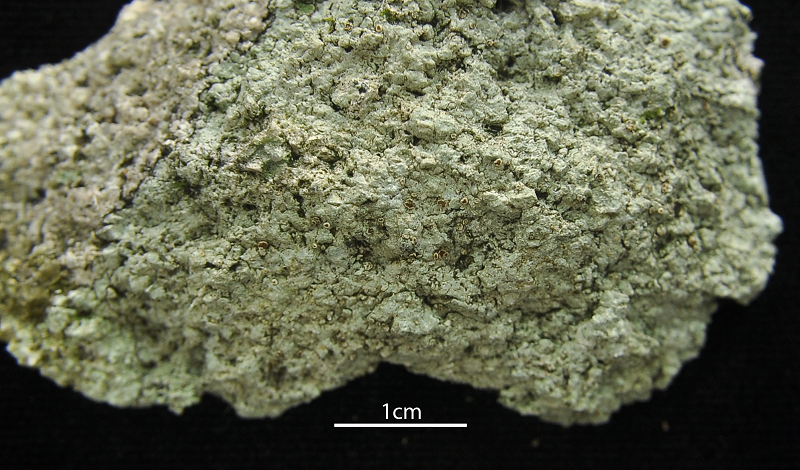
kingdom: Fungi
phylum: Ascomycota
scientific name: Ascomycota
